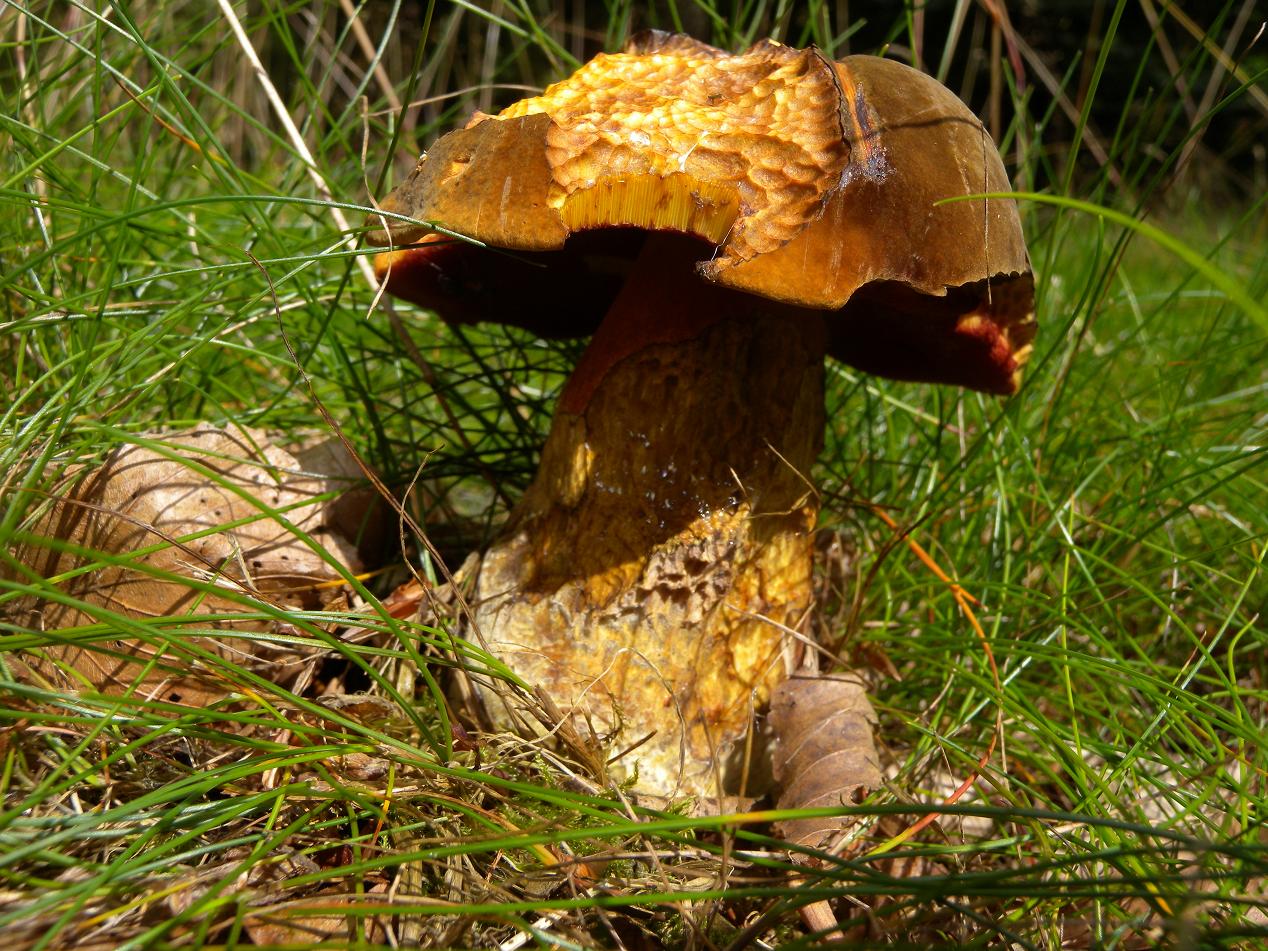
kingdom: Fungi
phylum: Basidiomycota
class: Agaricomycetes
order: Boletales
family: Boletaceae
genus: Neoboletus
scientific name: Neoboletus erythropus
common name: punktstokket indigorørhat
